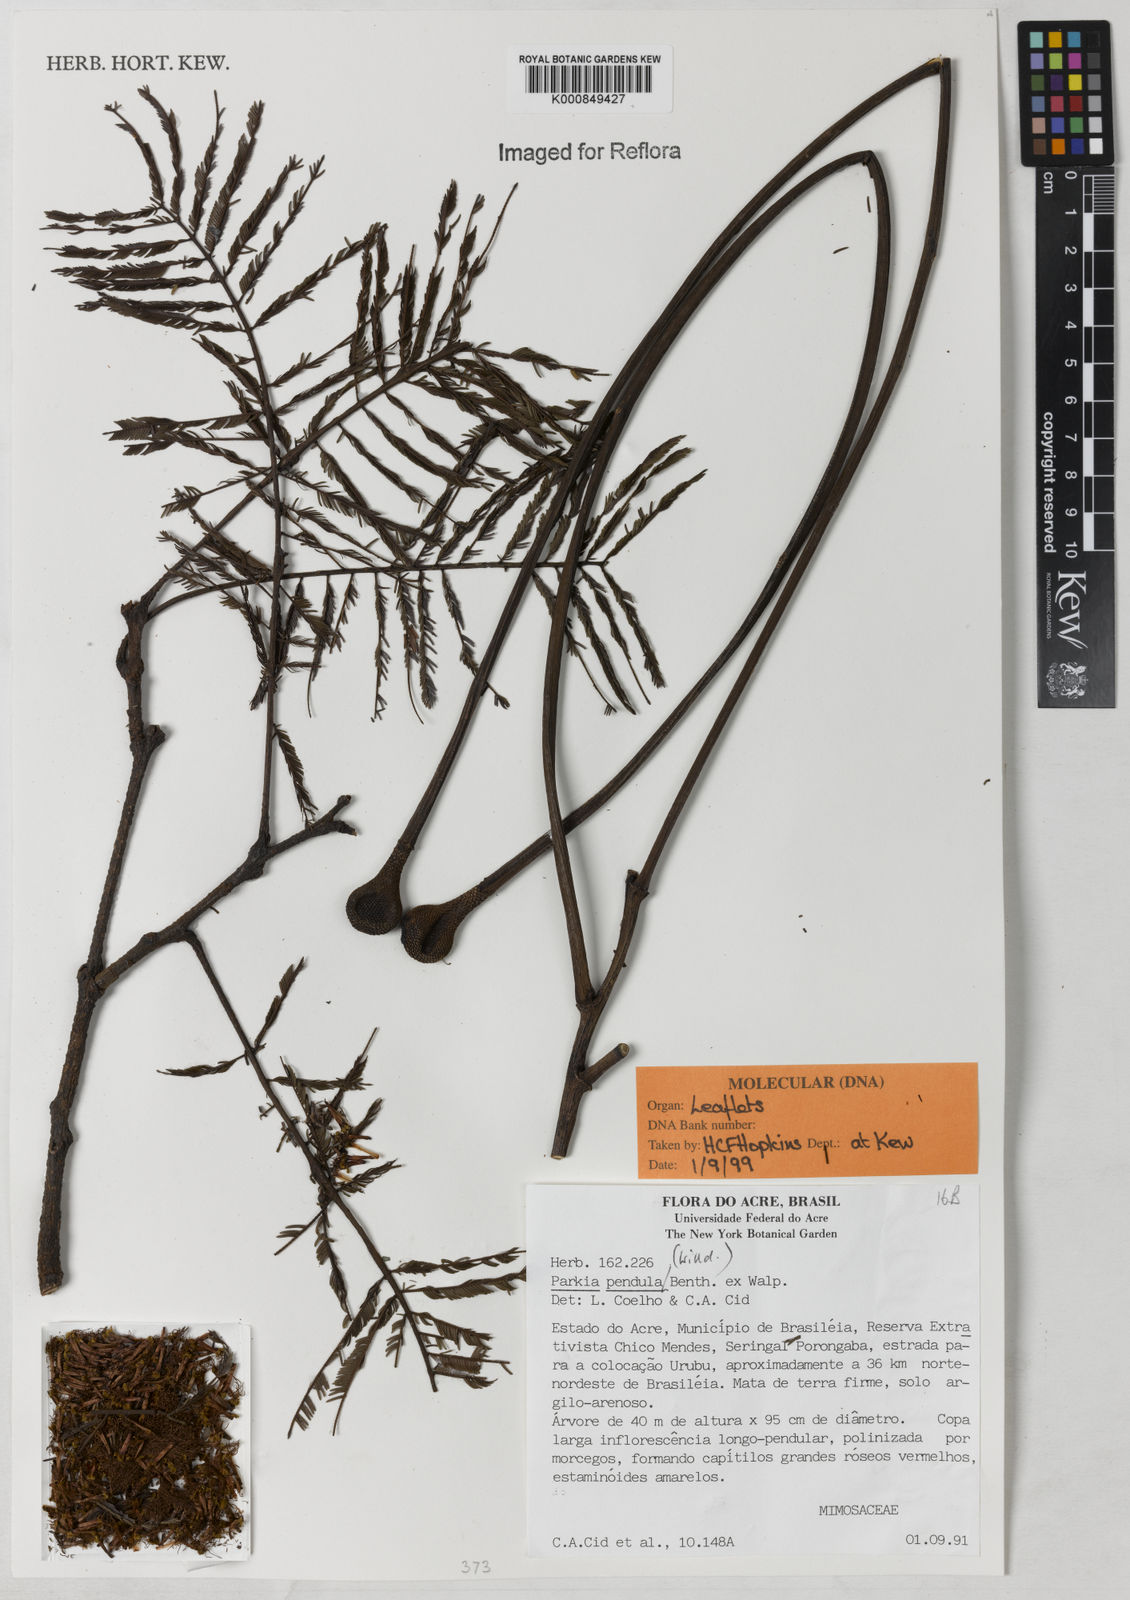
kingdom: Plantae
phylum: Tracheophyta
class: Magnoliopsida
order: Fabales
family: Fabaceae
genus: Parkia
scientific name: Parkia pendula
